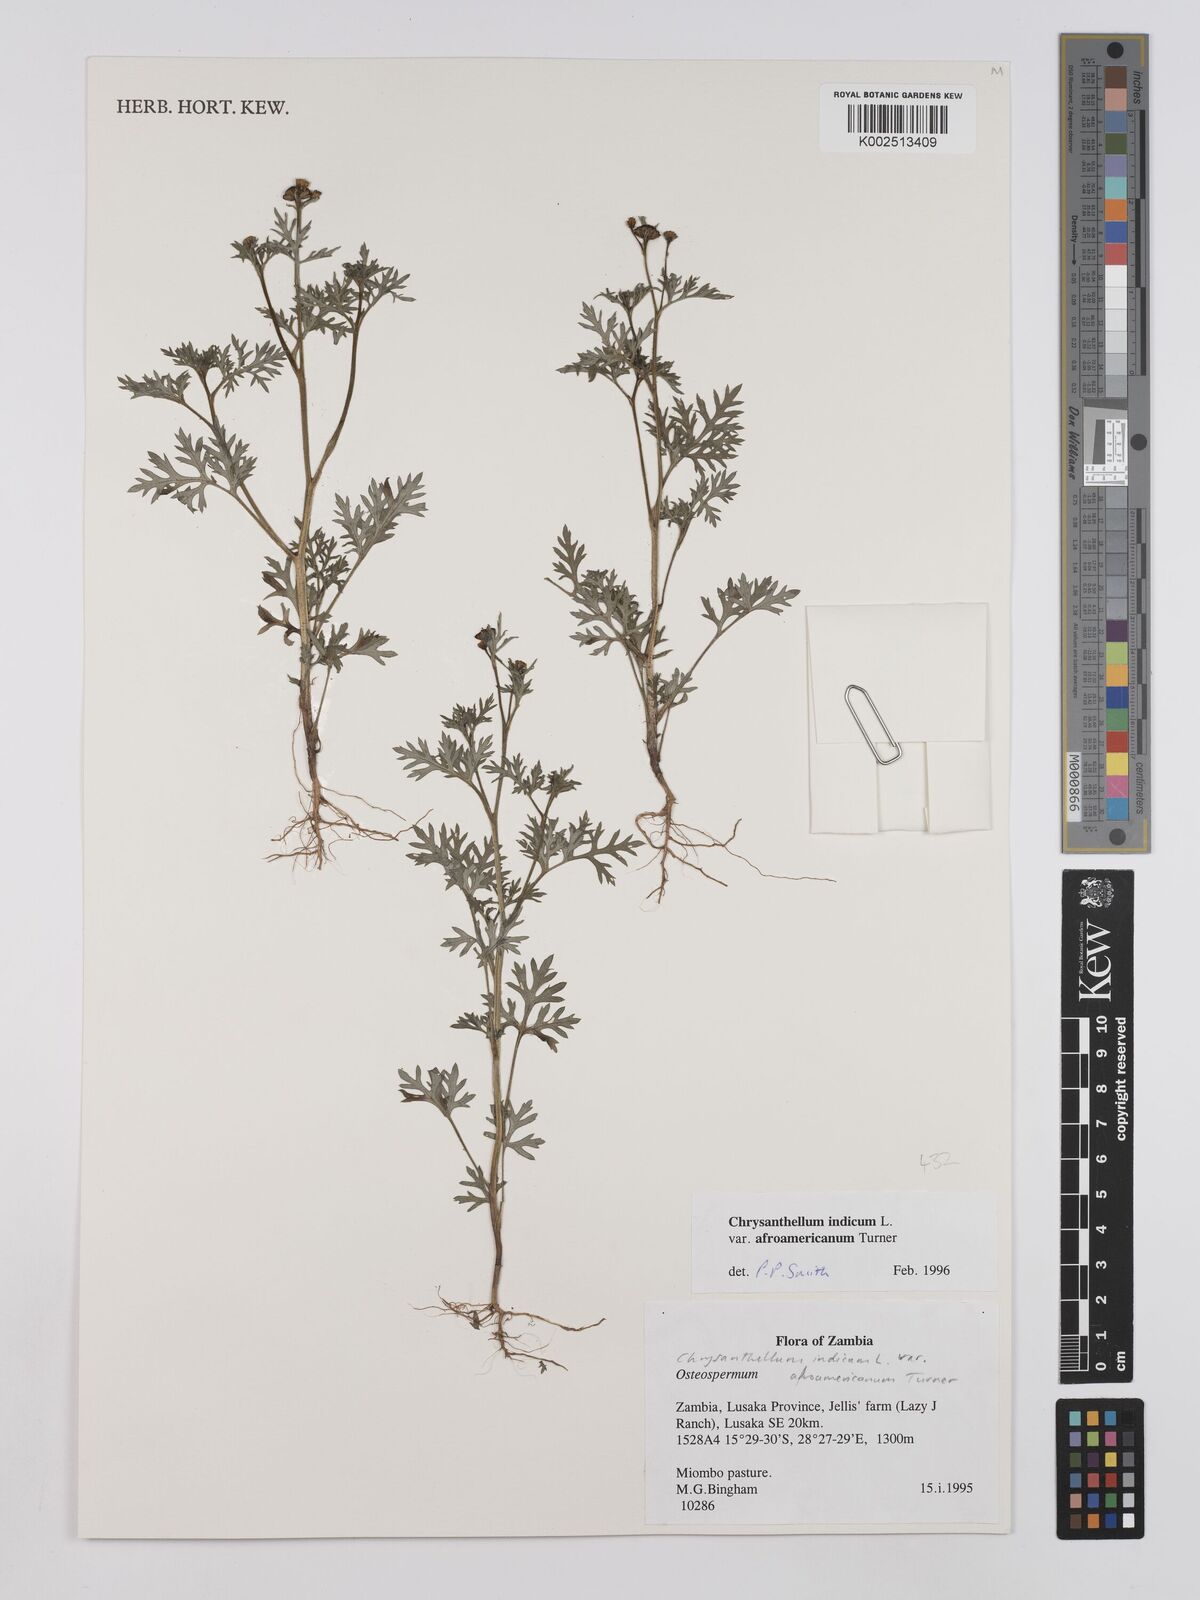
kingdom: Plantae
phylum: Tracheophyta
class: Magnoliopsida
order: Asterales
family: Asteraceae
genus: Chrysanthellum
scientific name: Chrysanthellum indicum
